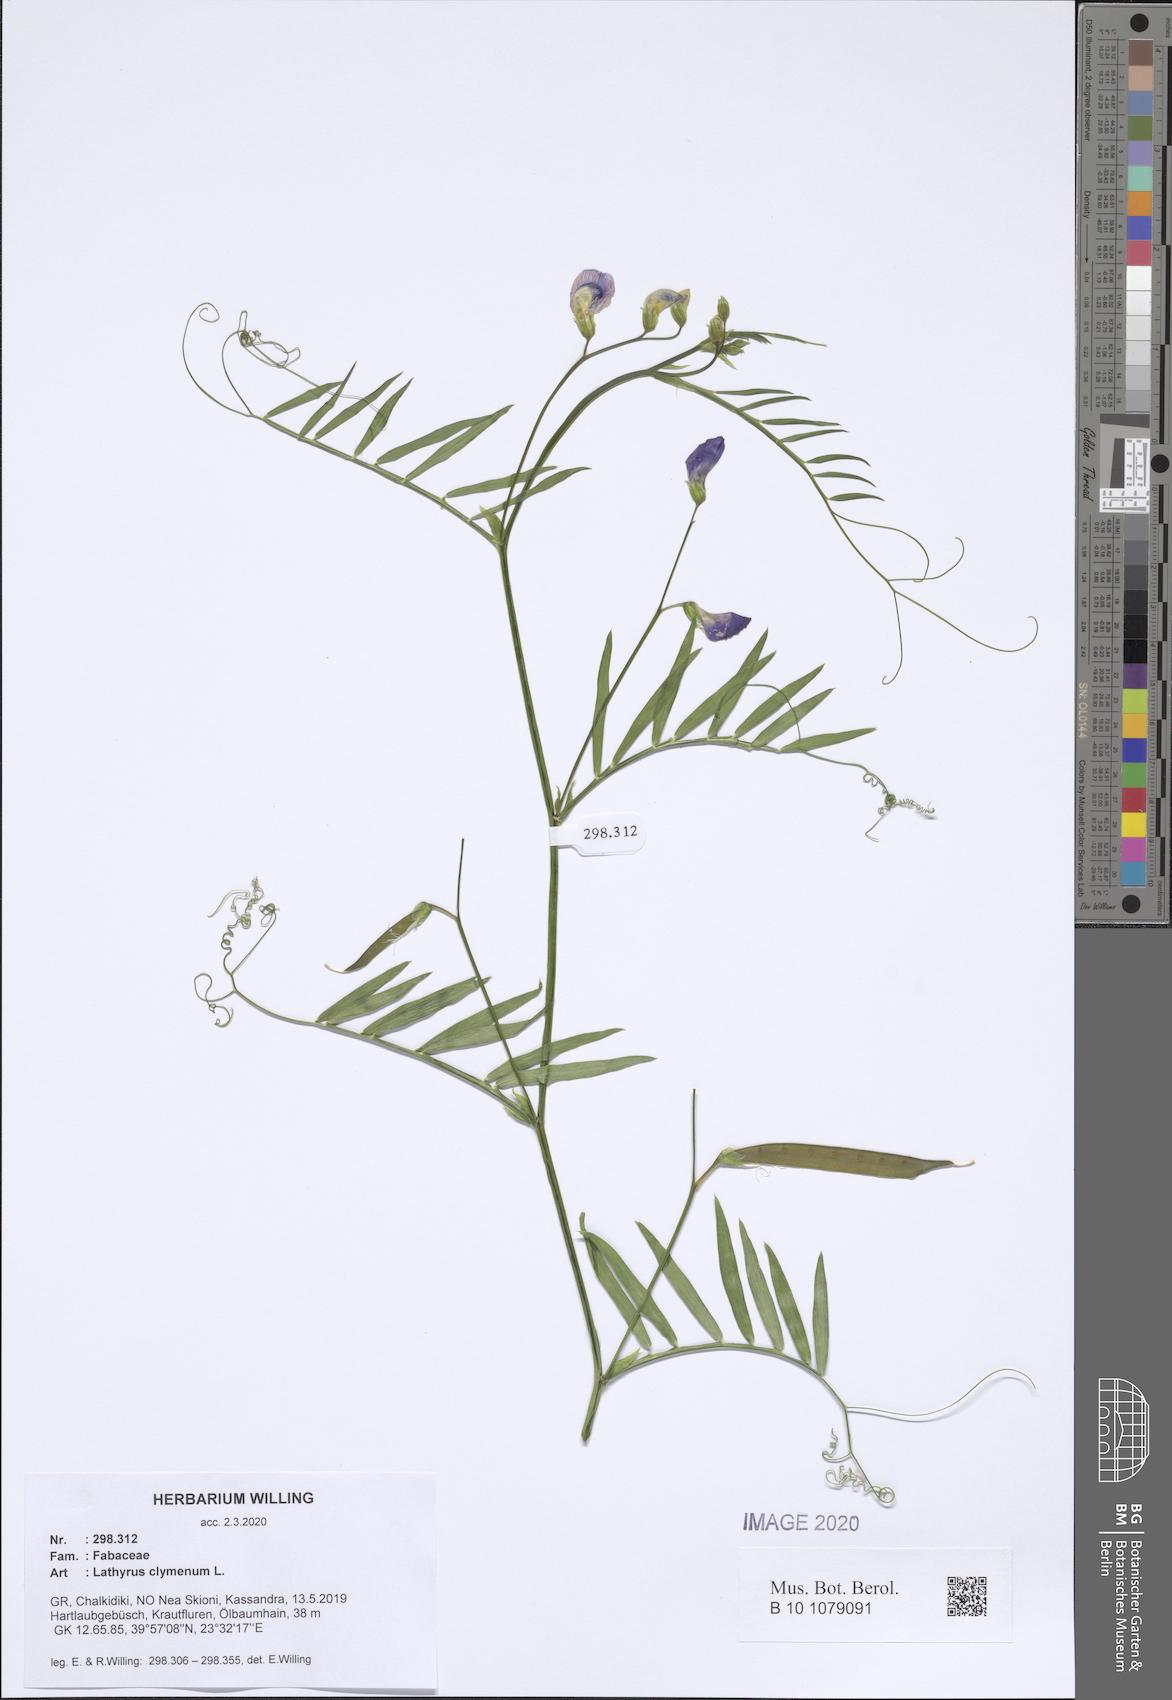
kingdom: Plantae
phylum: Tracheophyta
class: Magnoliopsida
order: Fabales
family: Fabaceae
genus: Lathyrus
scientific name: Lathyrus clymenum
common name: Spanish vetchling
